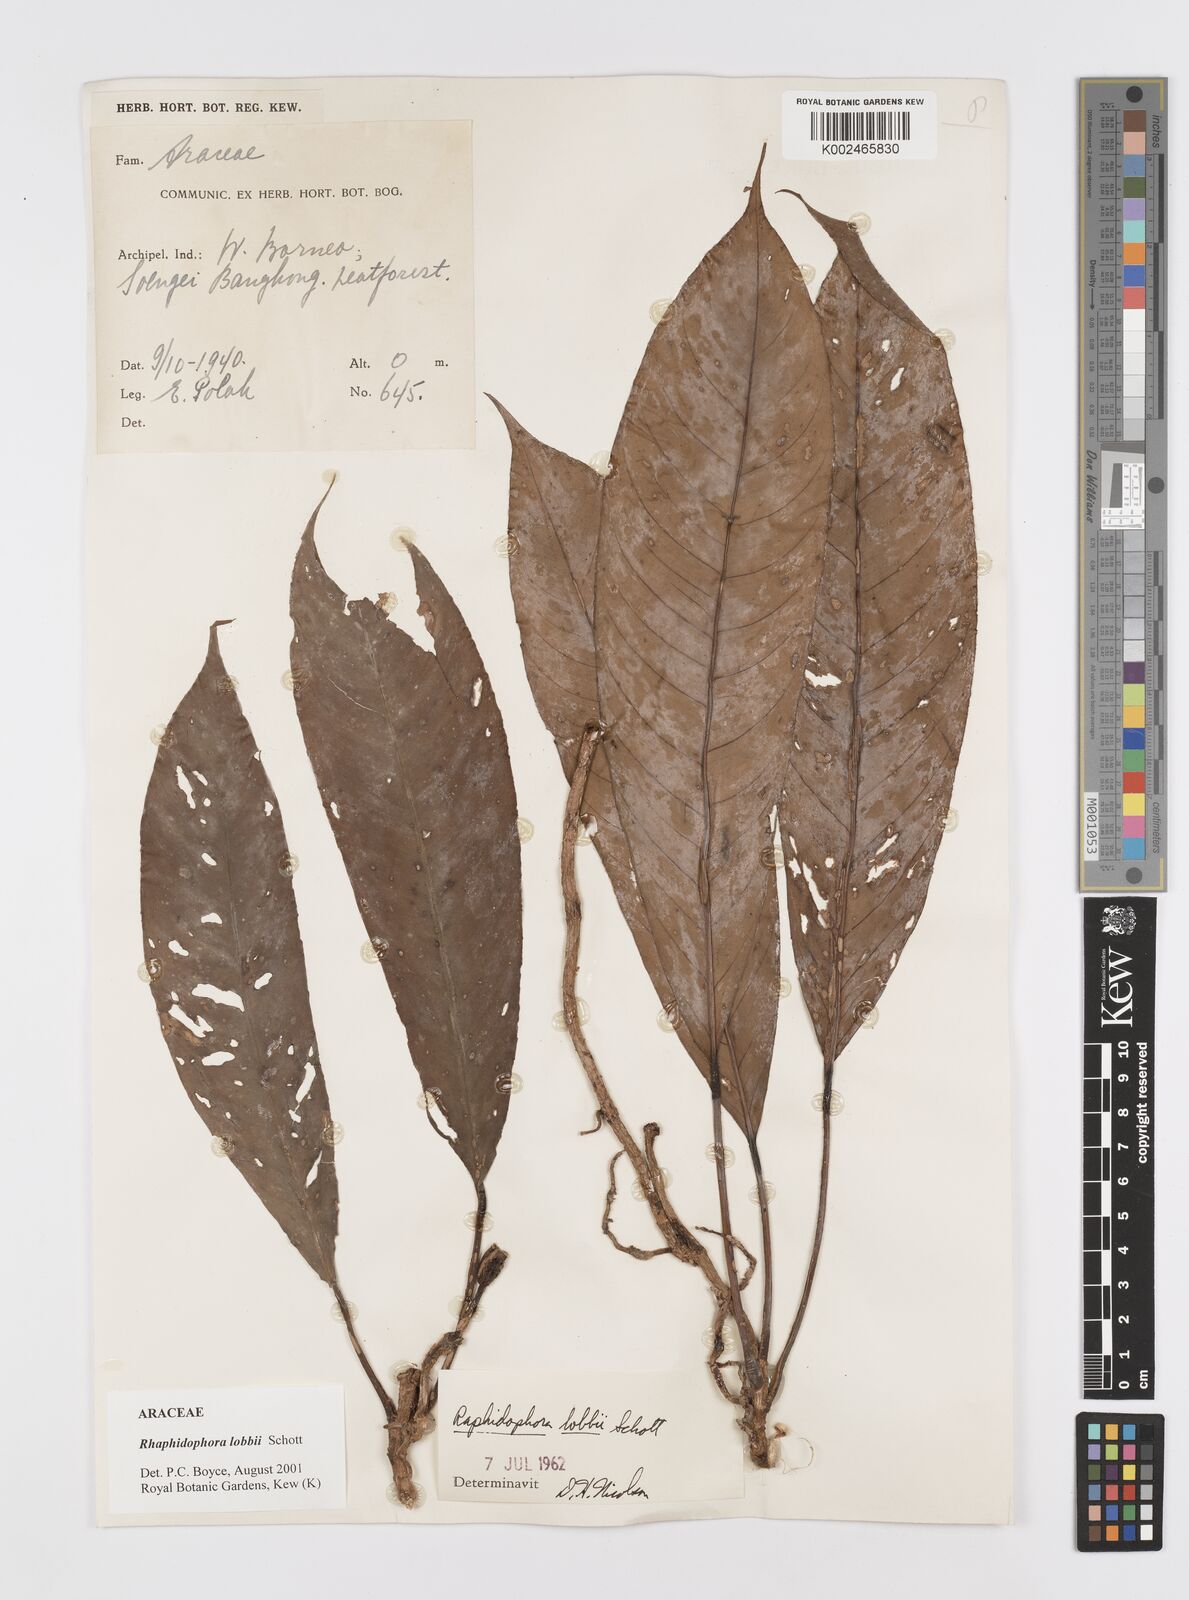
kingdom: Plantae
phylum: Tracheophyta
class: Liliopsida
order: Alismatales
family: Araceae
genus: Rhaphidophora
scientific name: Rhaphidophora lobbii
